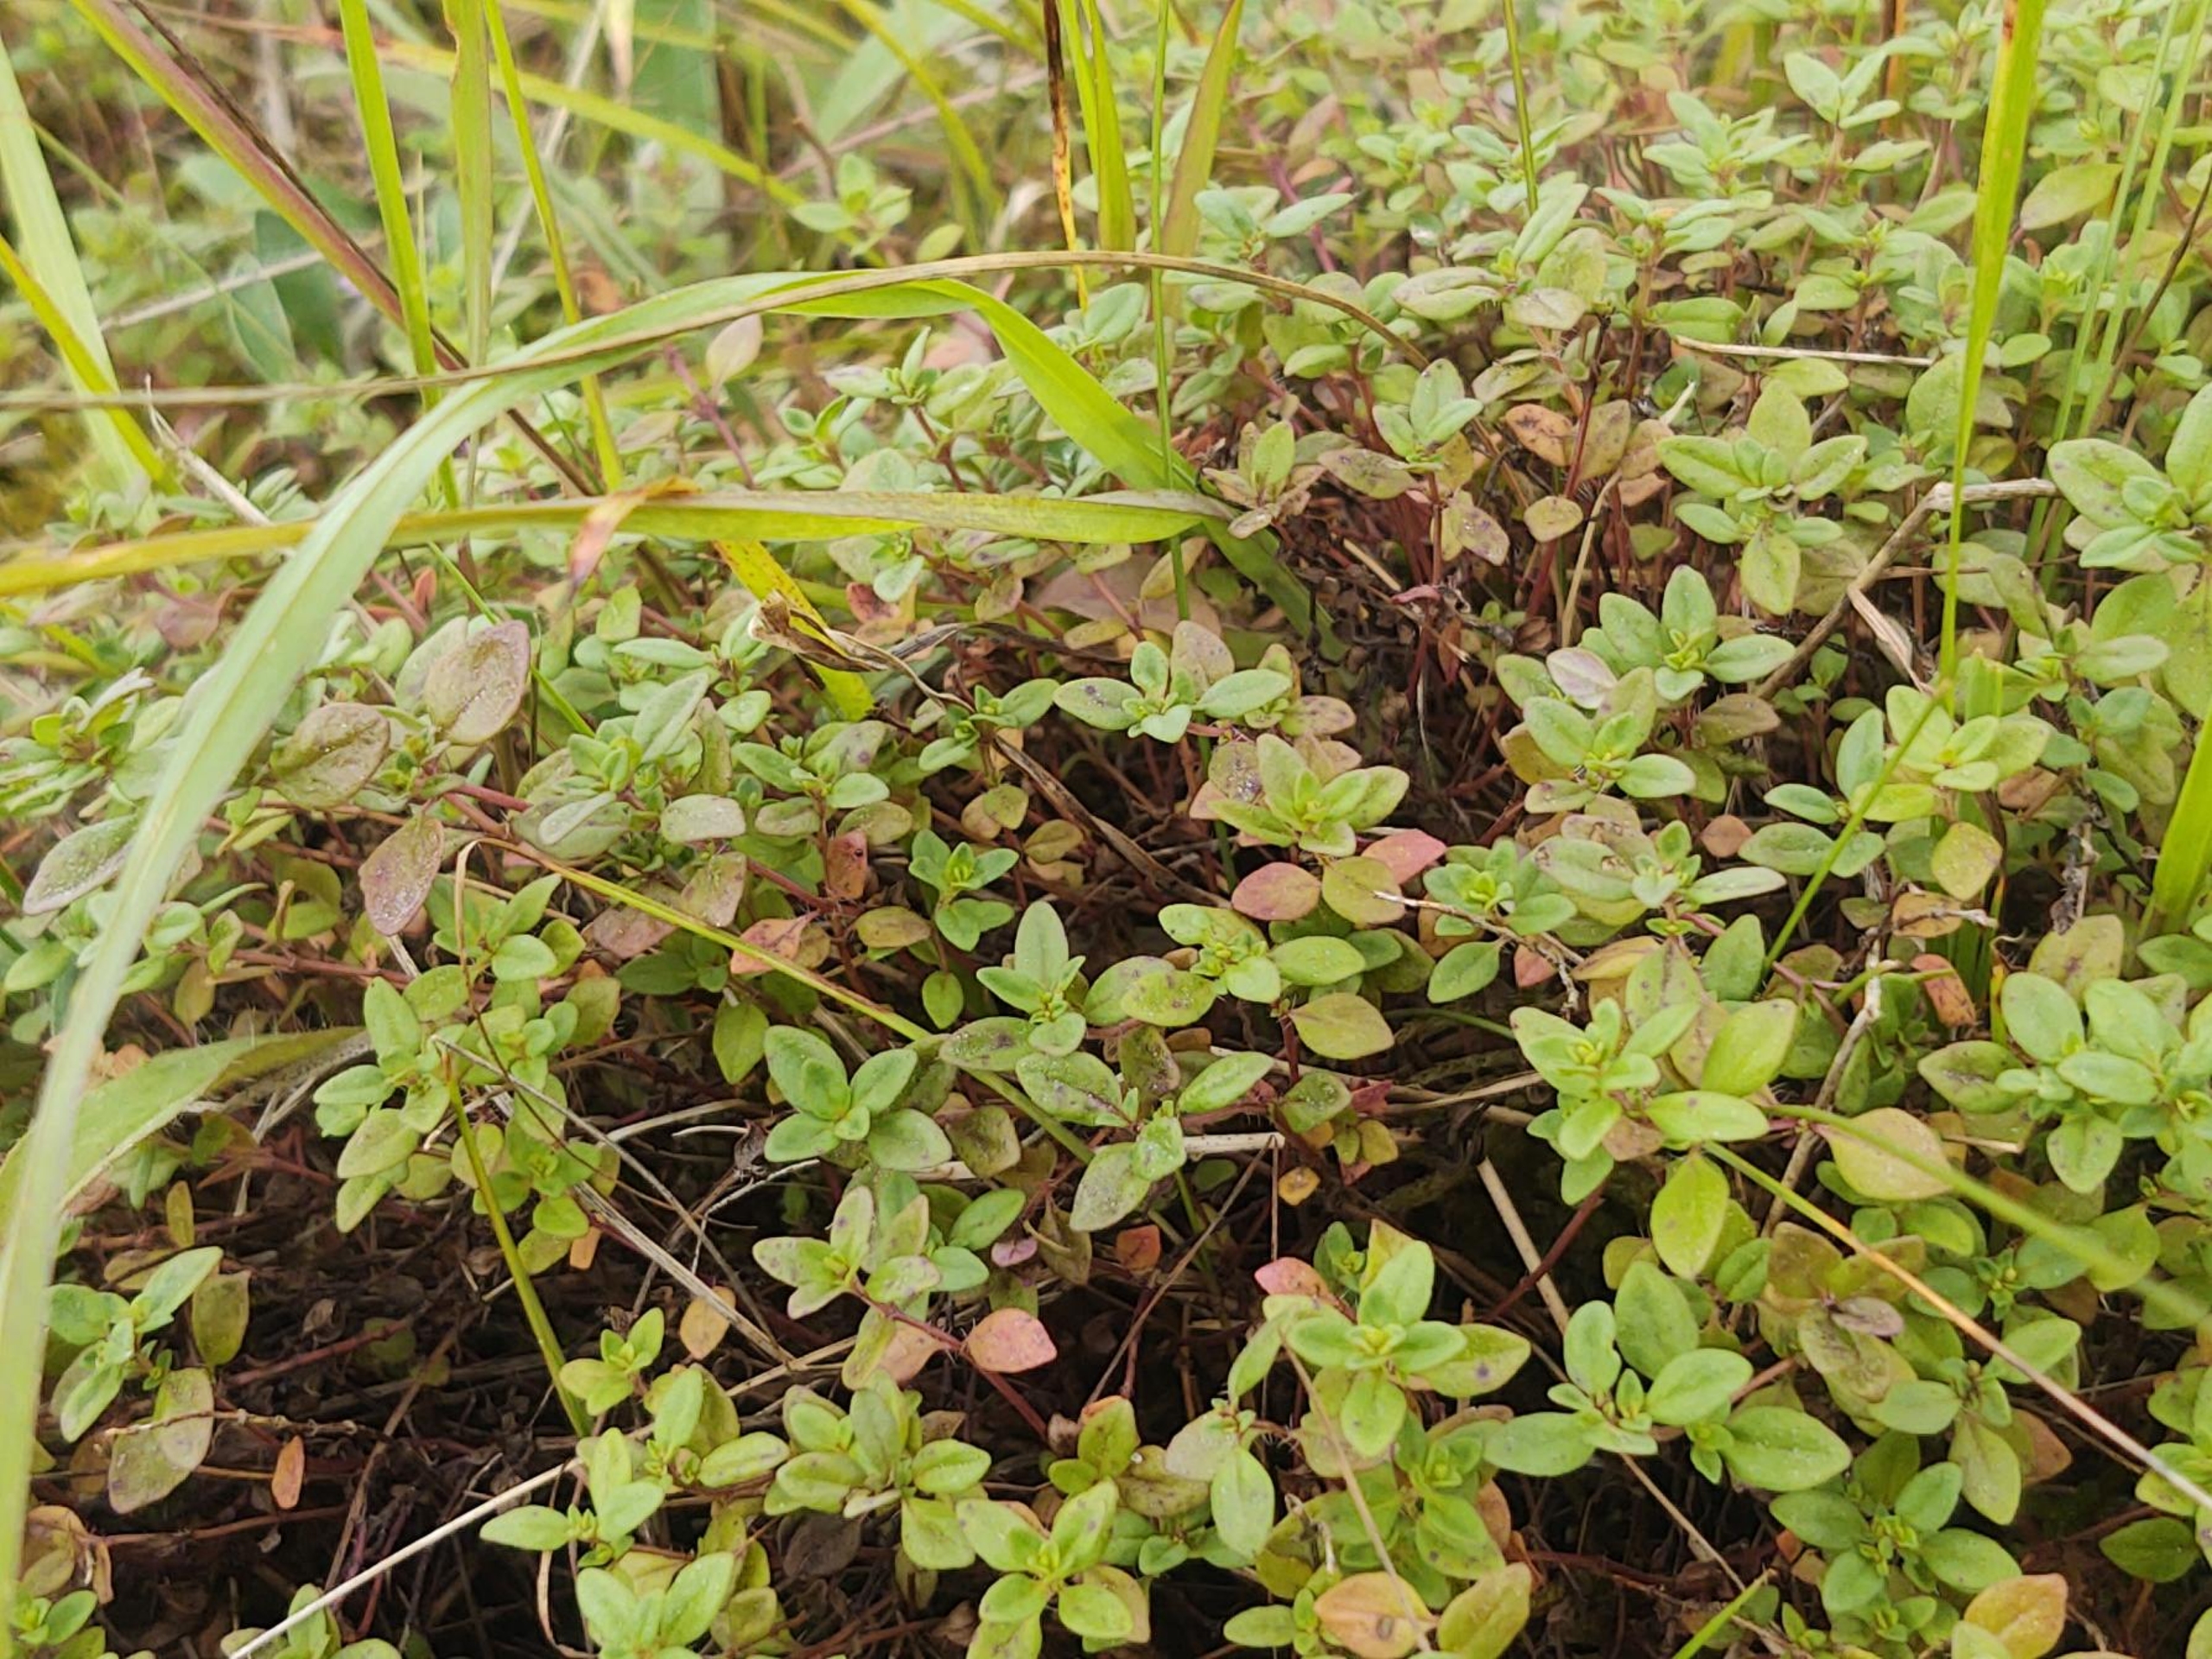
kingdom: Plantae
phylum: Tracheophyta
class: Magnoliopsida
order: Lamiales
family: Lamiaceae
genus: Thymus
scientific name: Thymus pulegioides
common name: Bredbladet timian
